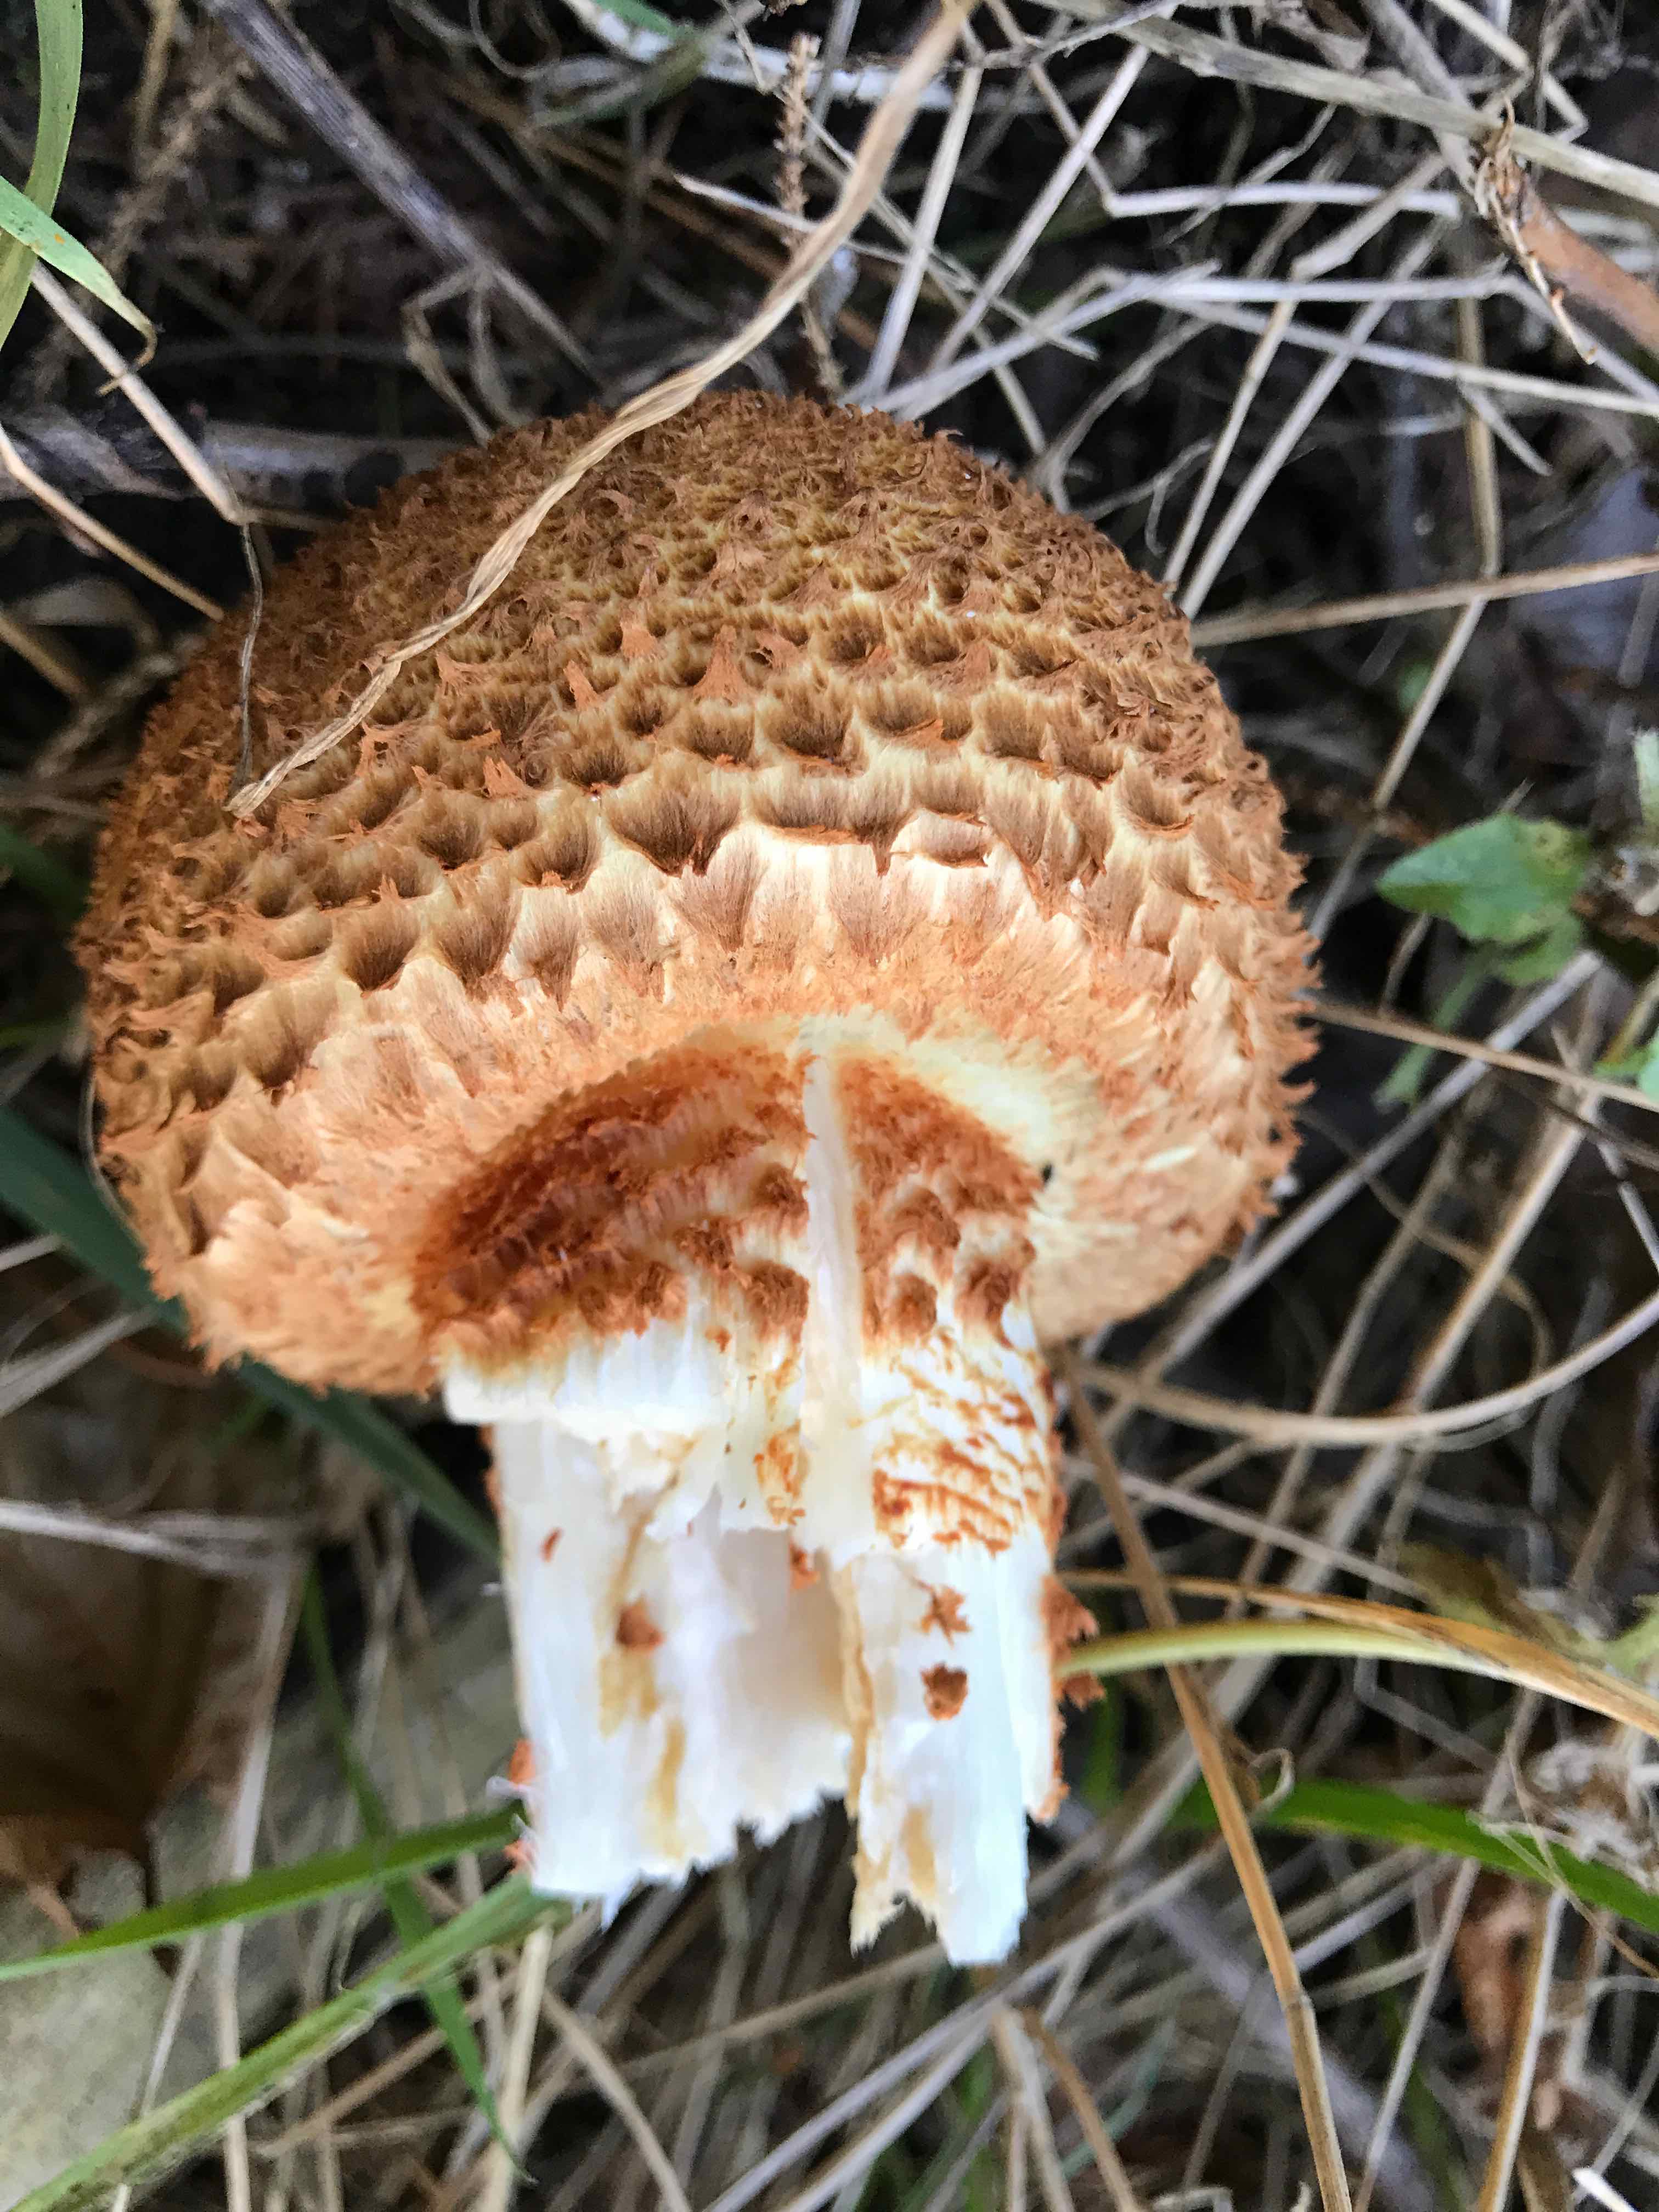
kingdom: Fungi
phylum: Basidiomycota
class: Agaricomycetes
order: Agaricales
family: Strophariaceae
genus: Pholiota
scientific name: Pholiota squarrosa
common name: krumskællet skælhat
